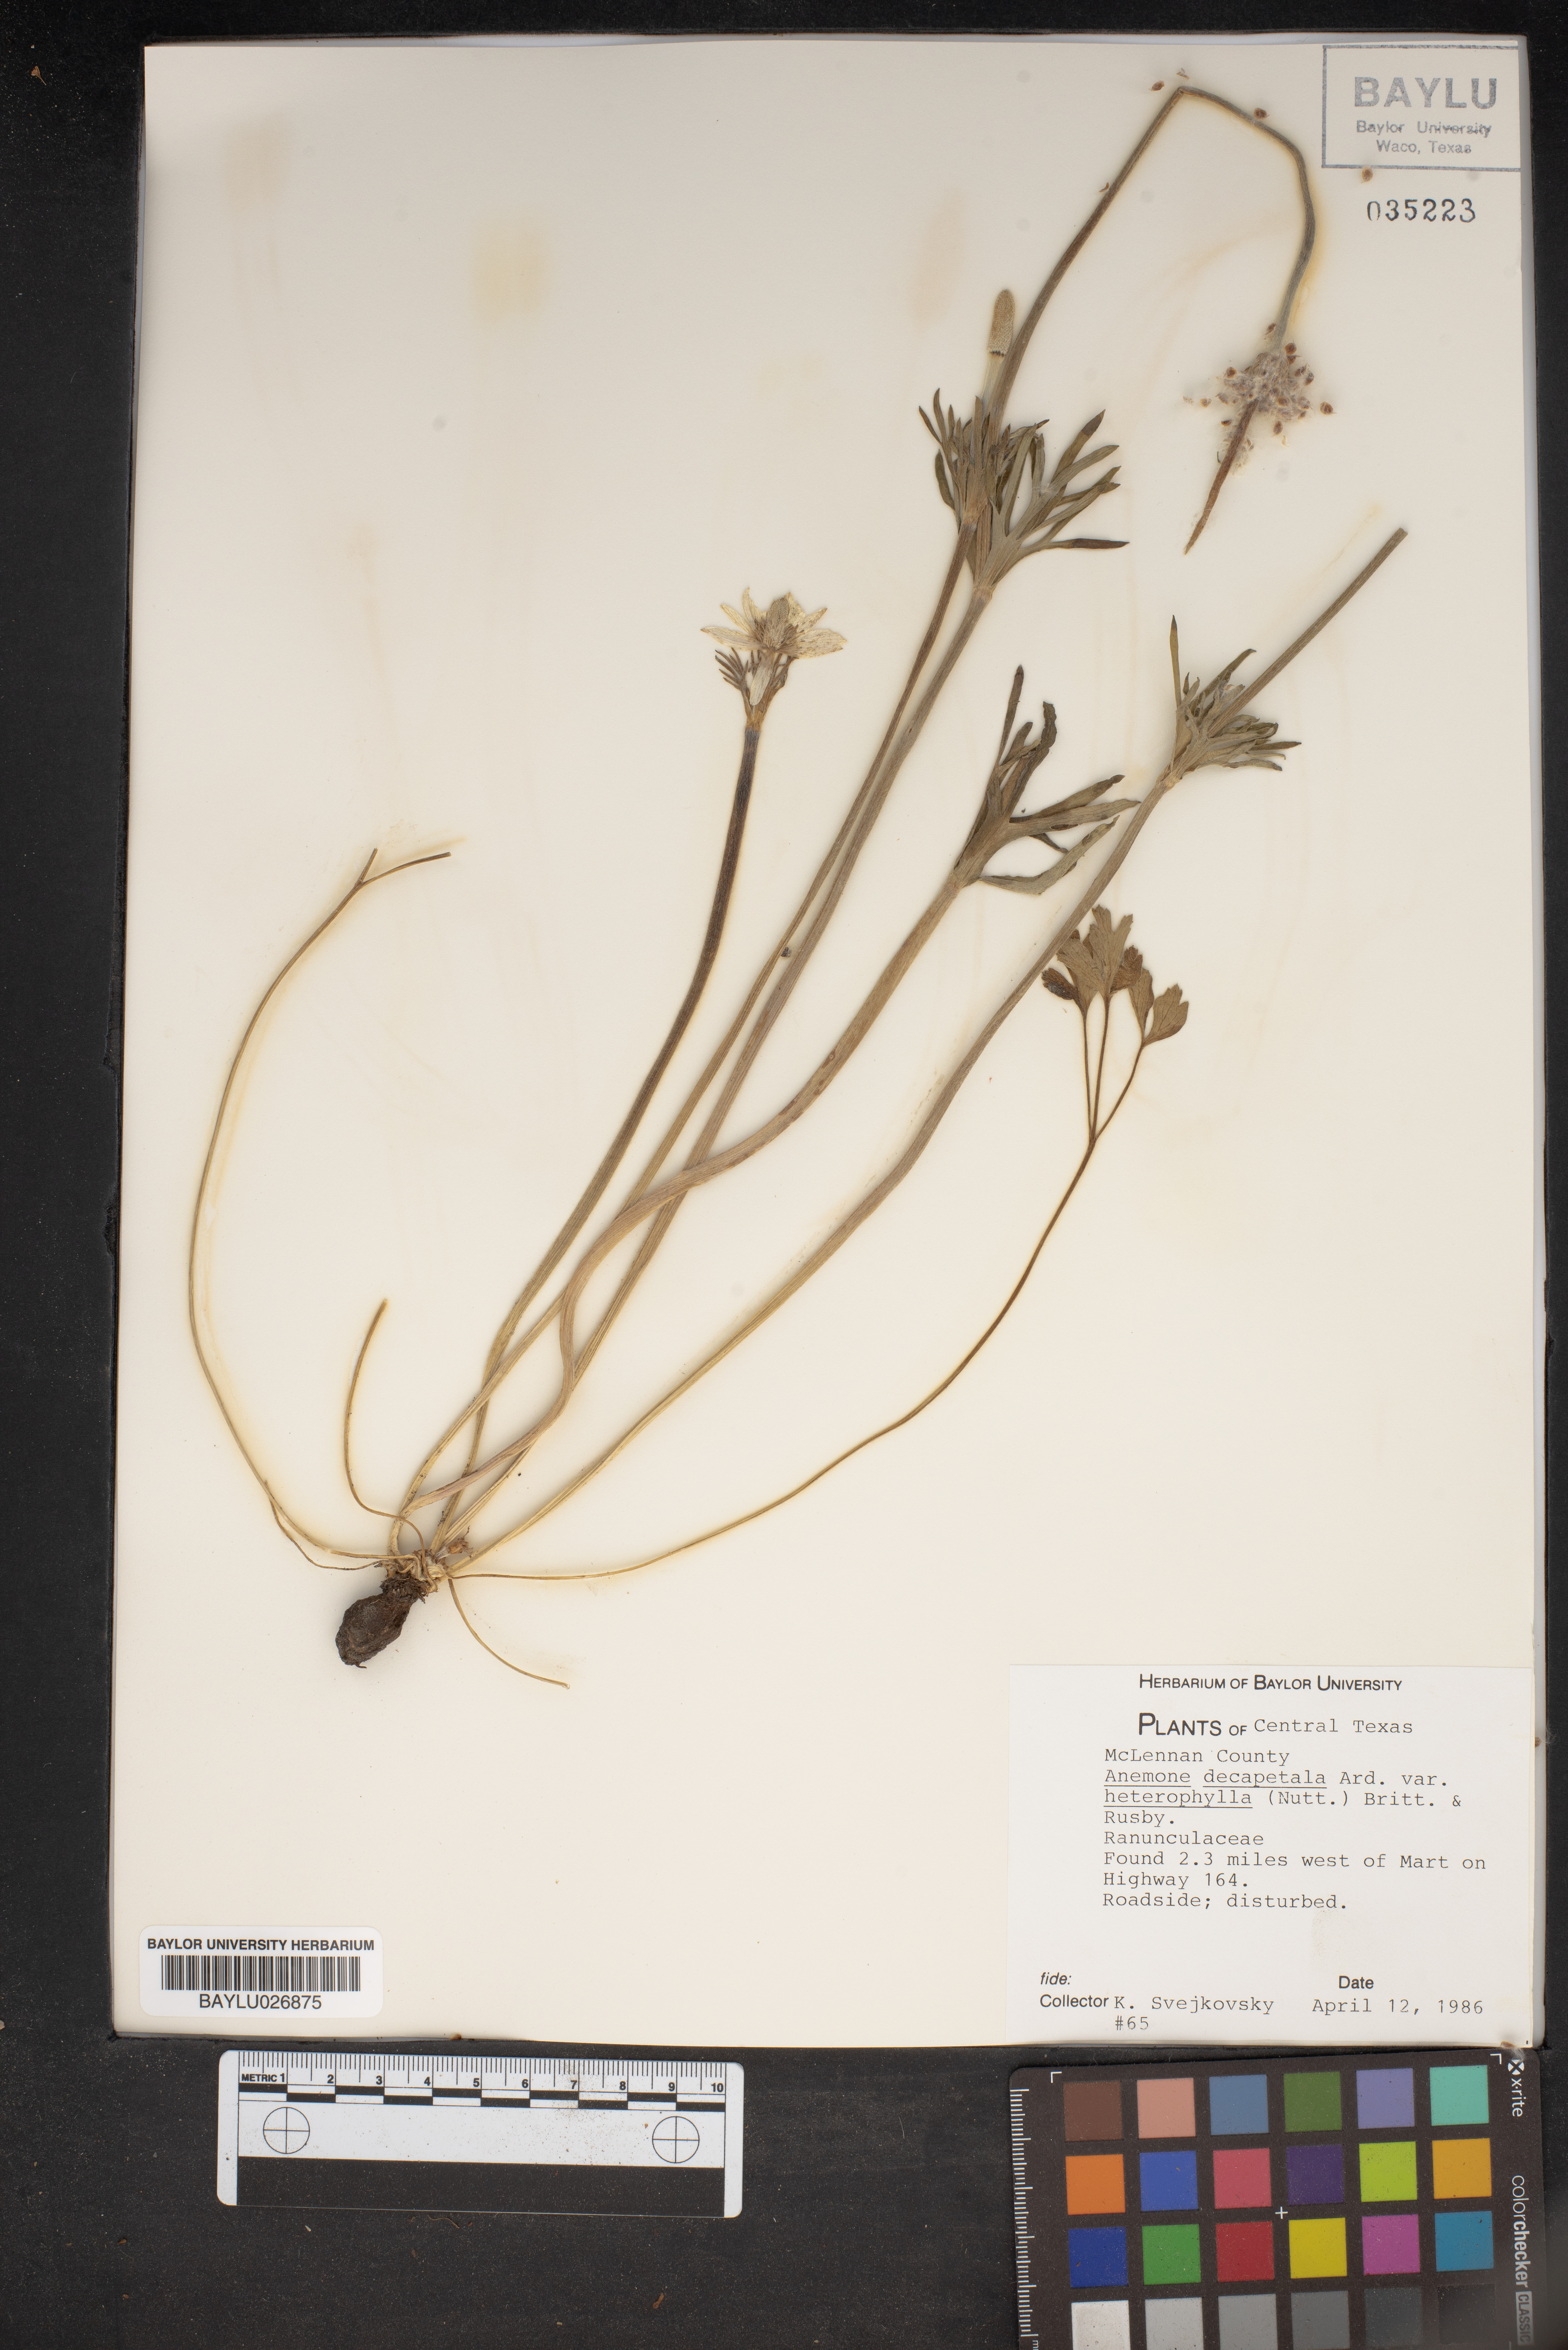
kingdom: Plantae
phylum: Tracheophyta
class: Magnoliopsida
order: Ranunculales
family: Ranunculaceae
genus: Anemone
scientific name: Anemone berlandieri
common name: Ten-petal anemone
